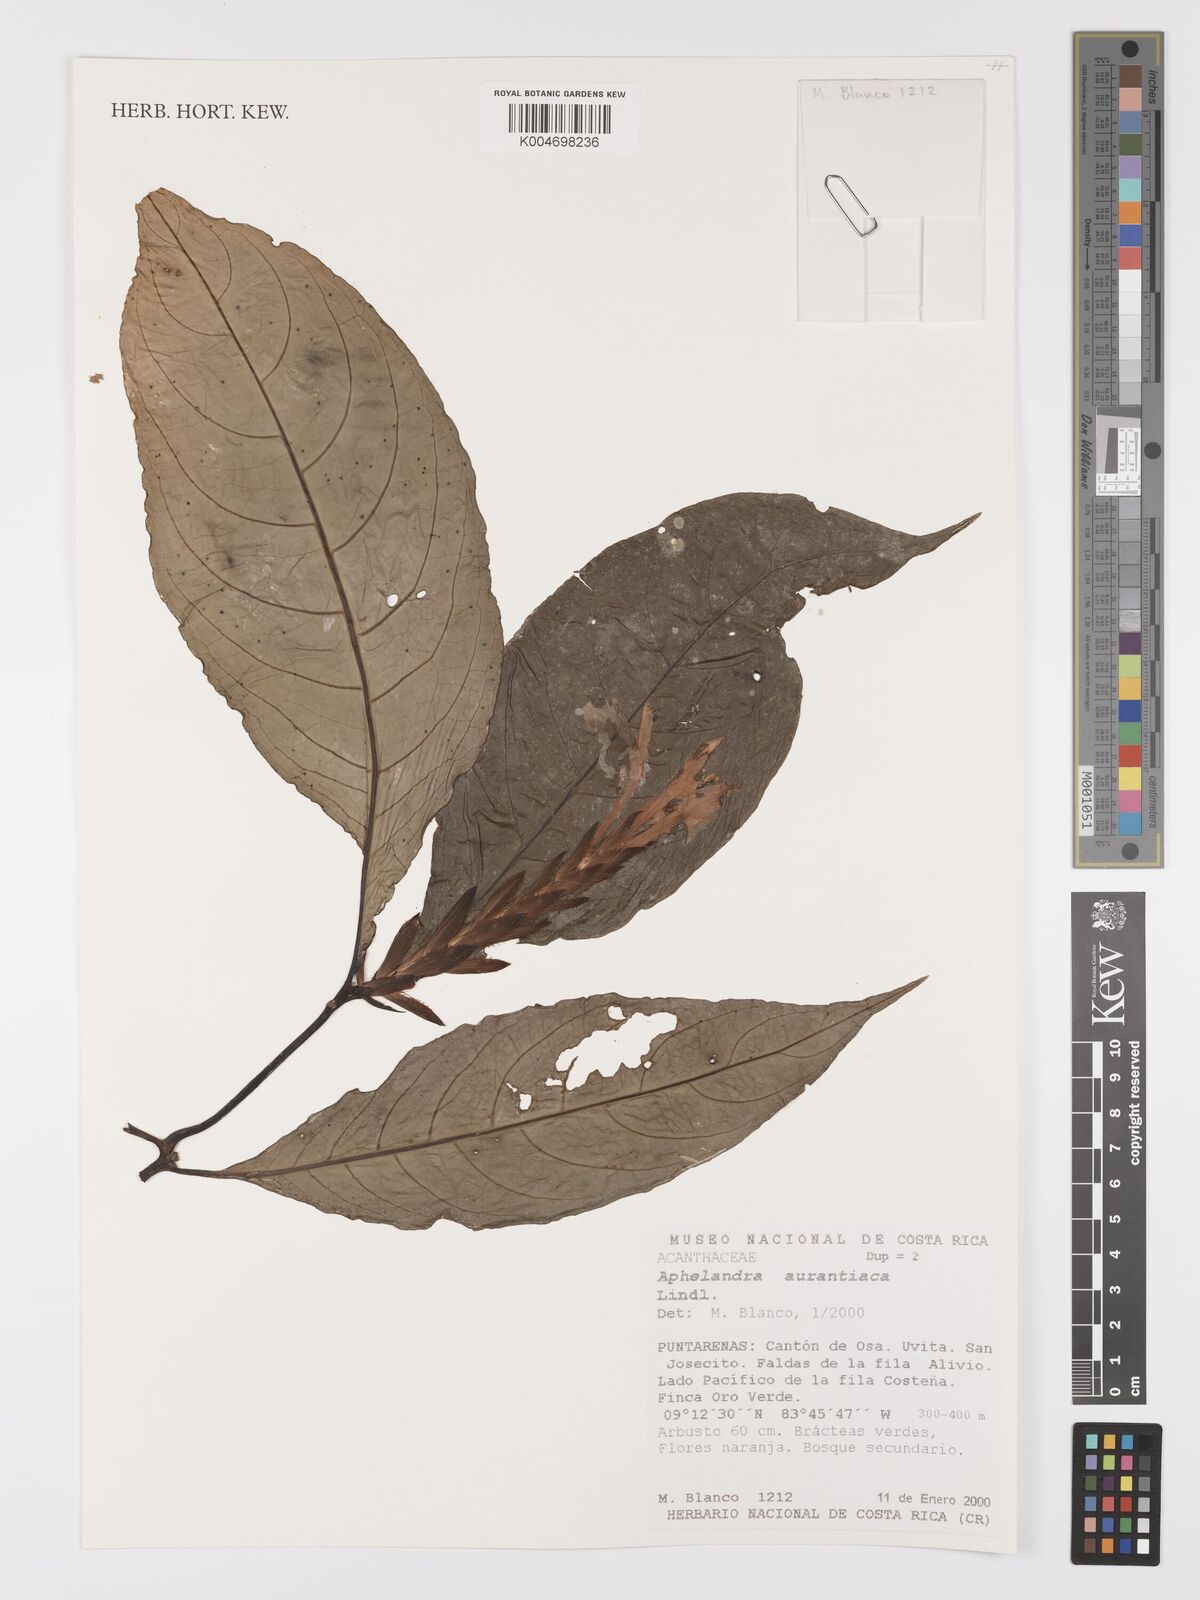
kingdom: Plantae
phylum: Tracheophyta
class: Magnoliopsida
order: Lamiales
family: Acanthaceae
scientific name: Acanthaceae
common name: Acanthaceae
